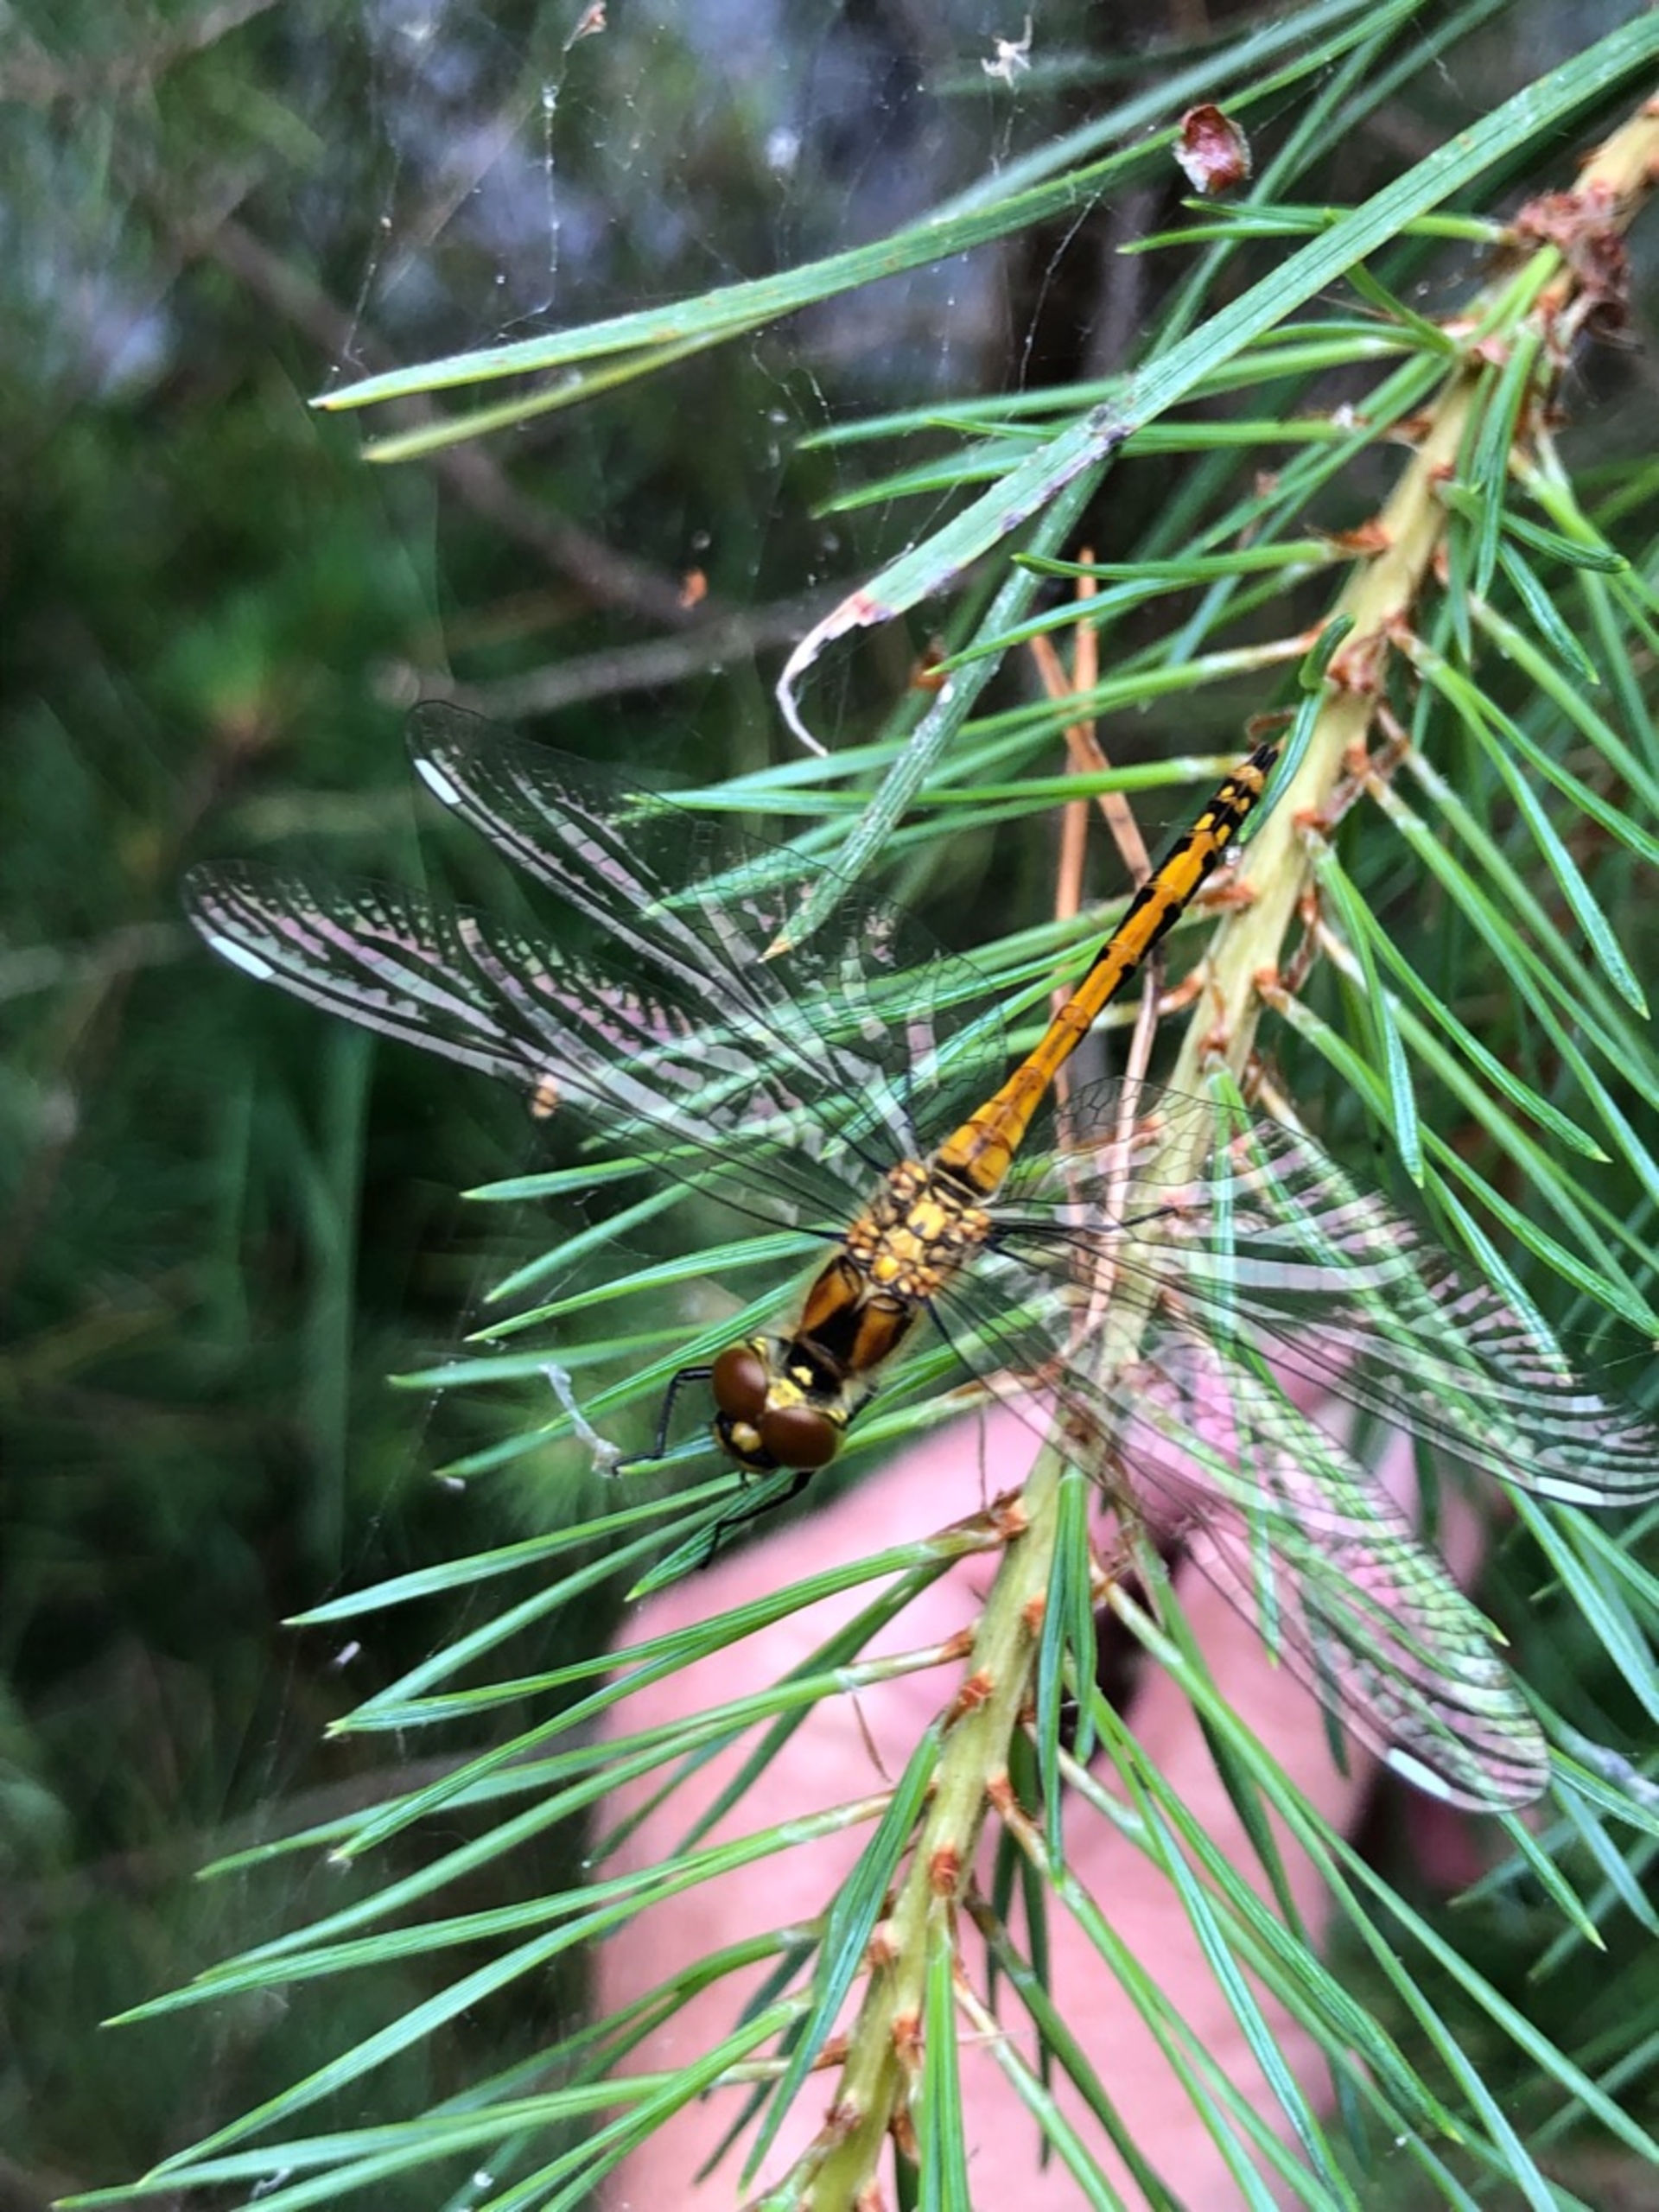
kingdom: Animalia
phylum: Arthropoda
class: Insecta
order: Odonata
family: Libellulidae
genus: Sympetrum
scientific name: Sympetrum danae
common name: Sort hedelibel
